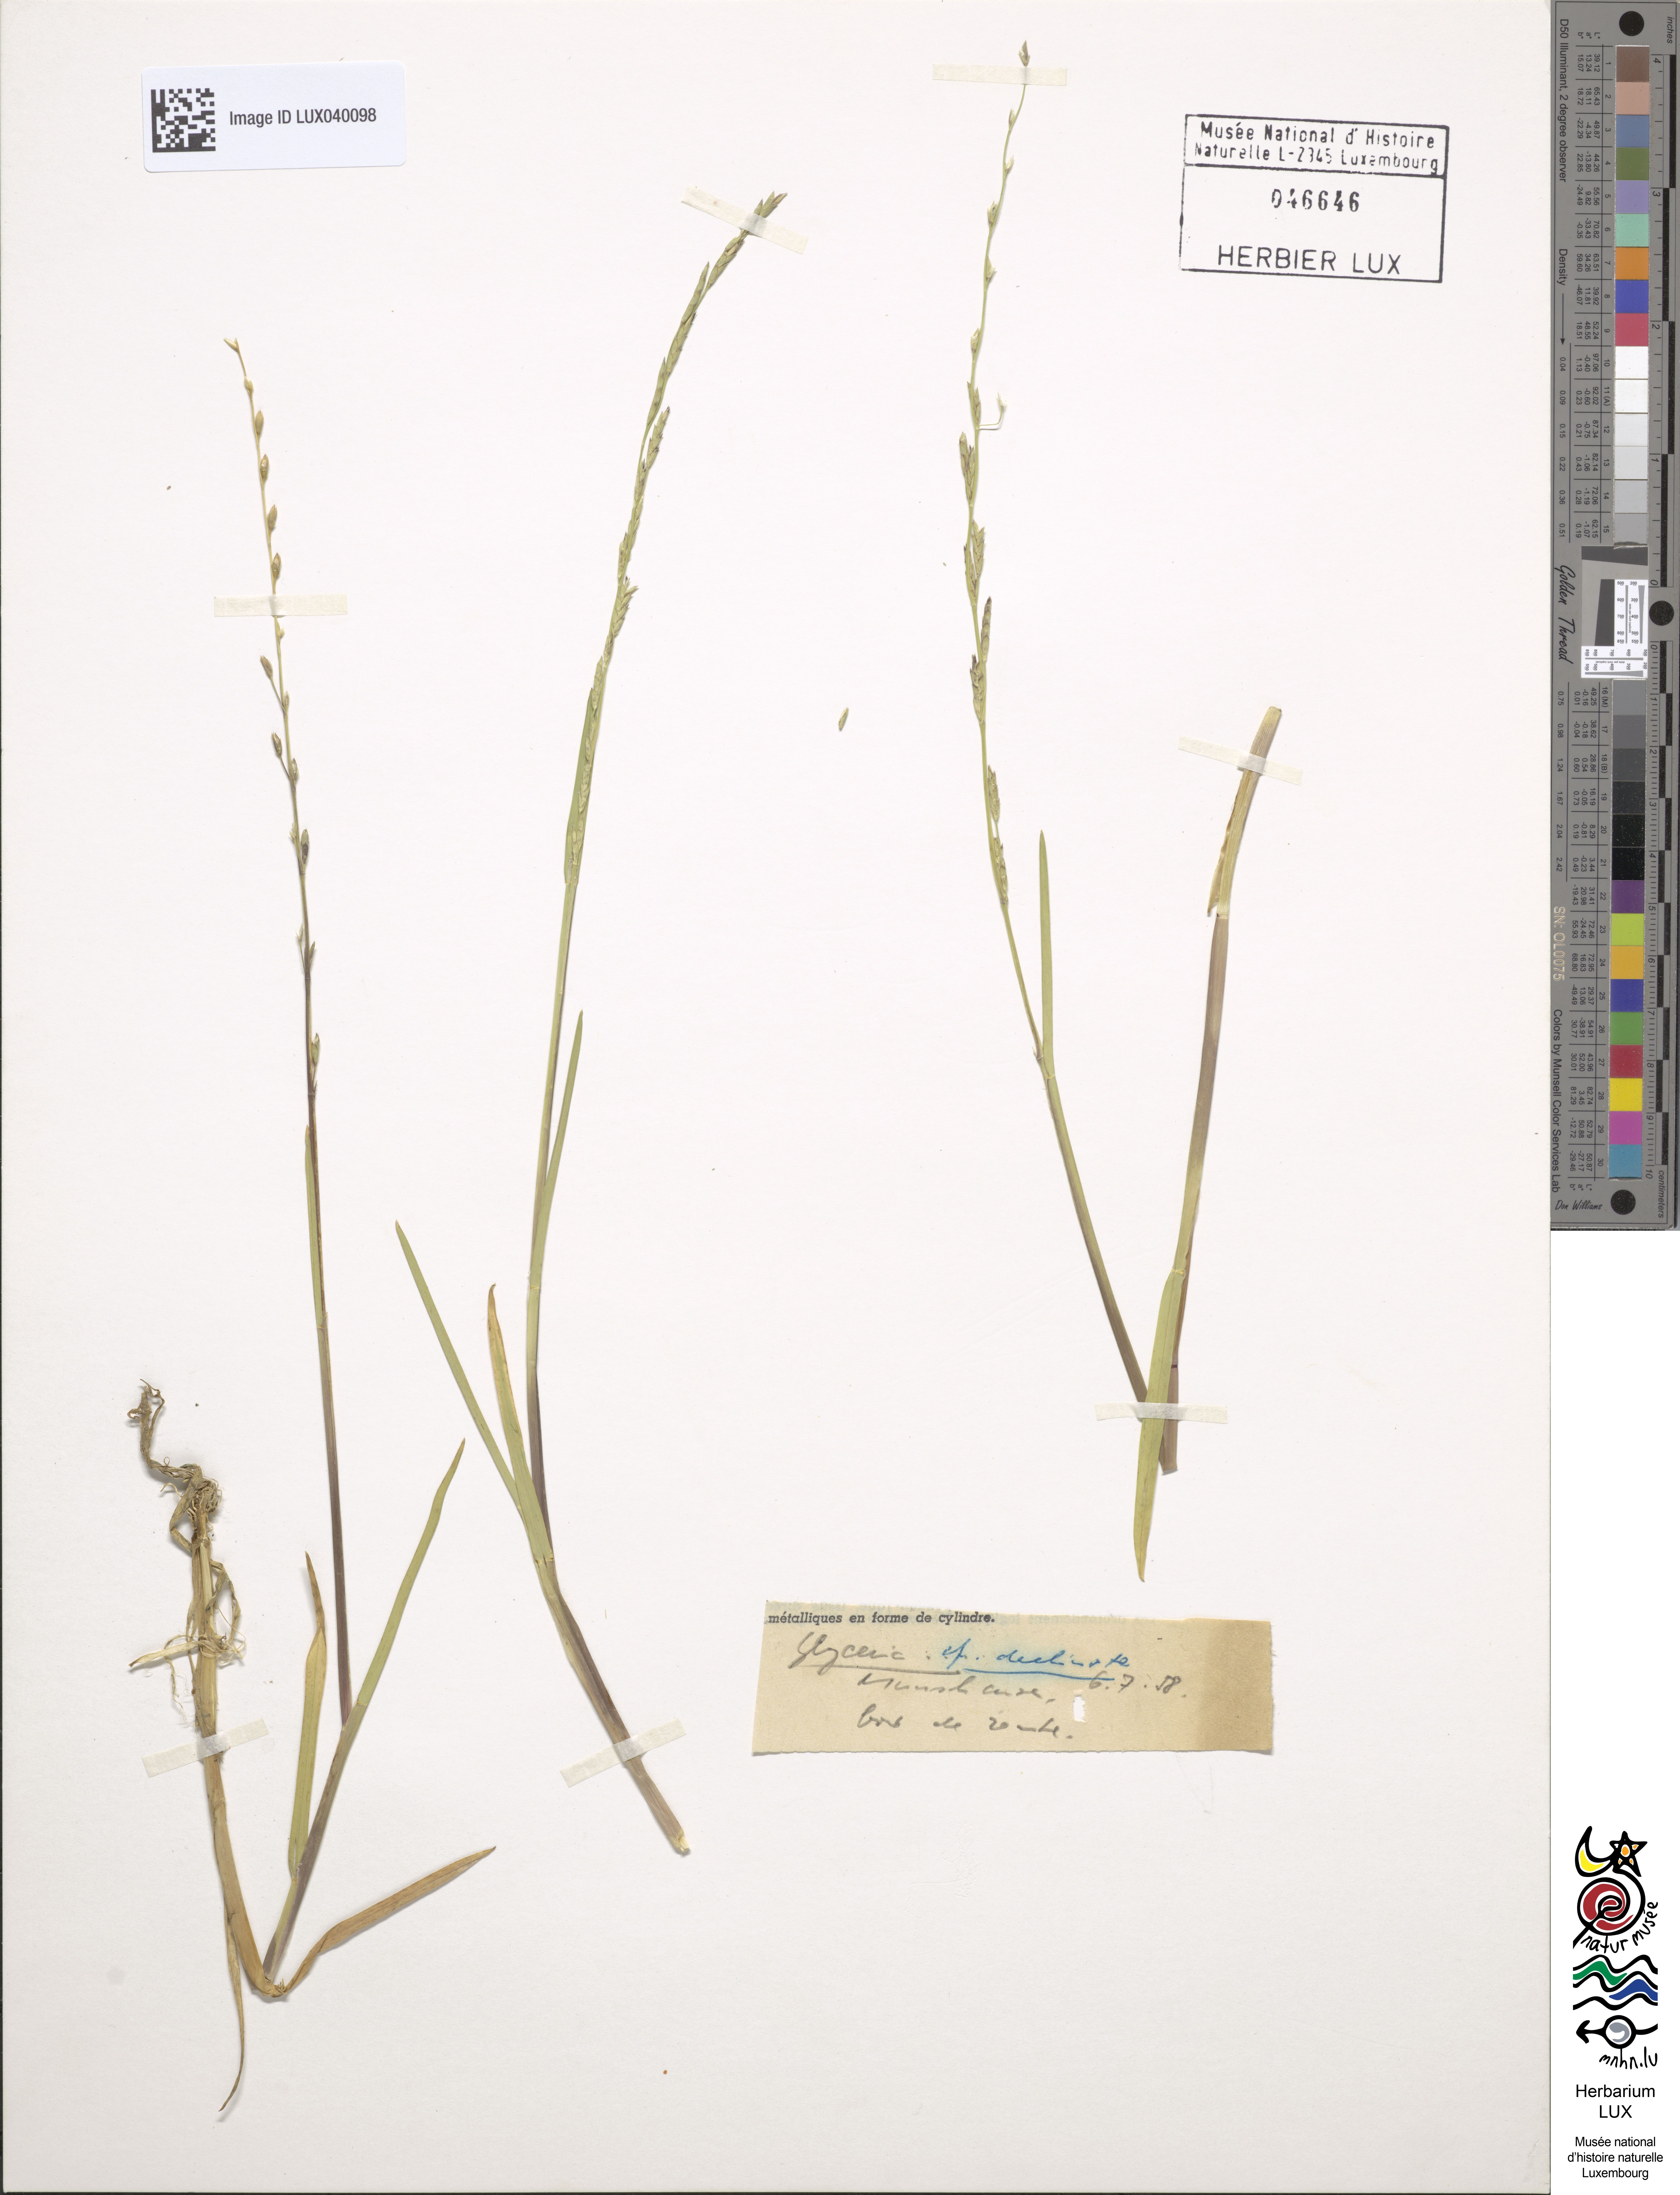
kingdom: Plantae
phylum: Tracheophyta
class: Liliopsida
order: Poales
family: Poaceae
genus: Glyceria
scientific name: Glyceria declinata
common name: Small sweet-grass
